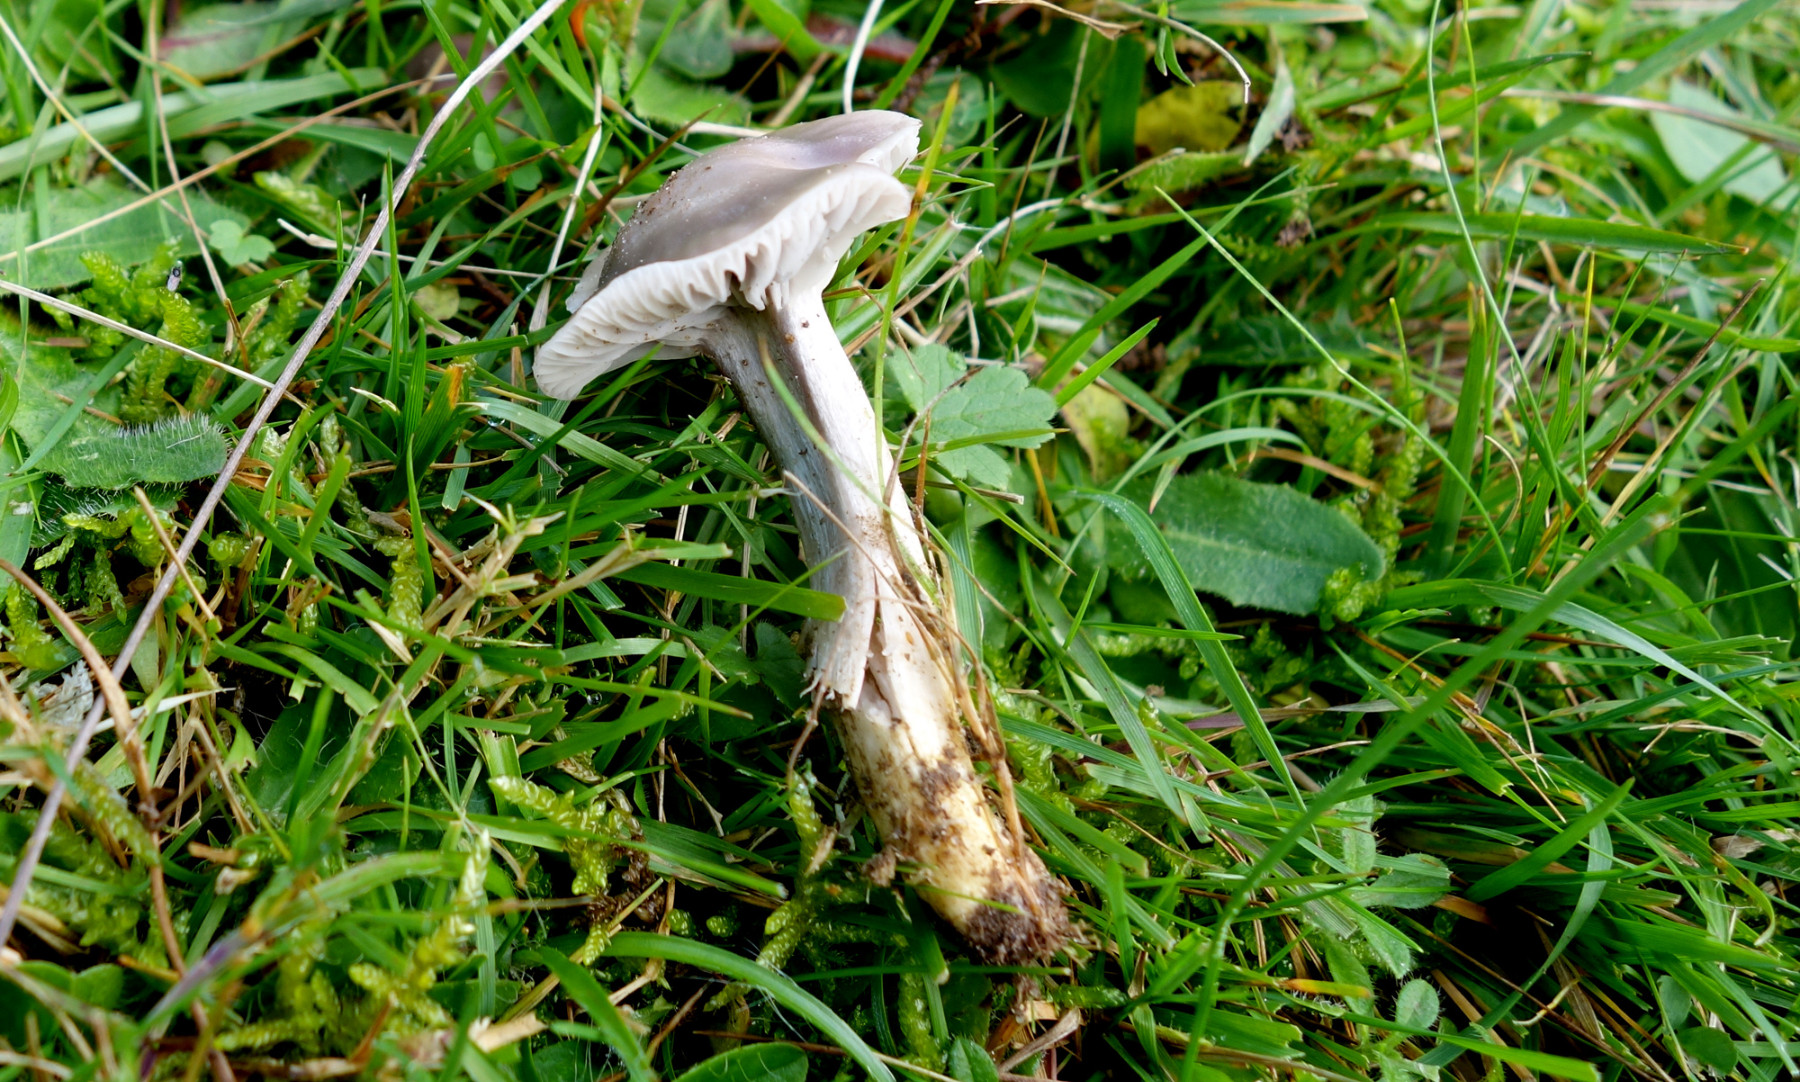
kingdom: Fungi
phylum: Basidiomycota
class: Agaricomycetes
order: Agaricales
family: Hygrophoraceae
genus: Cuphophyllus
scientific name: Cuphophyllus flavipes
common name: gulfodet vokshat
